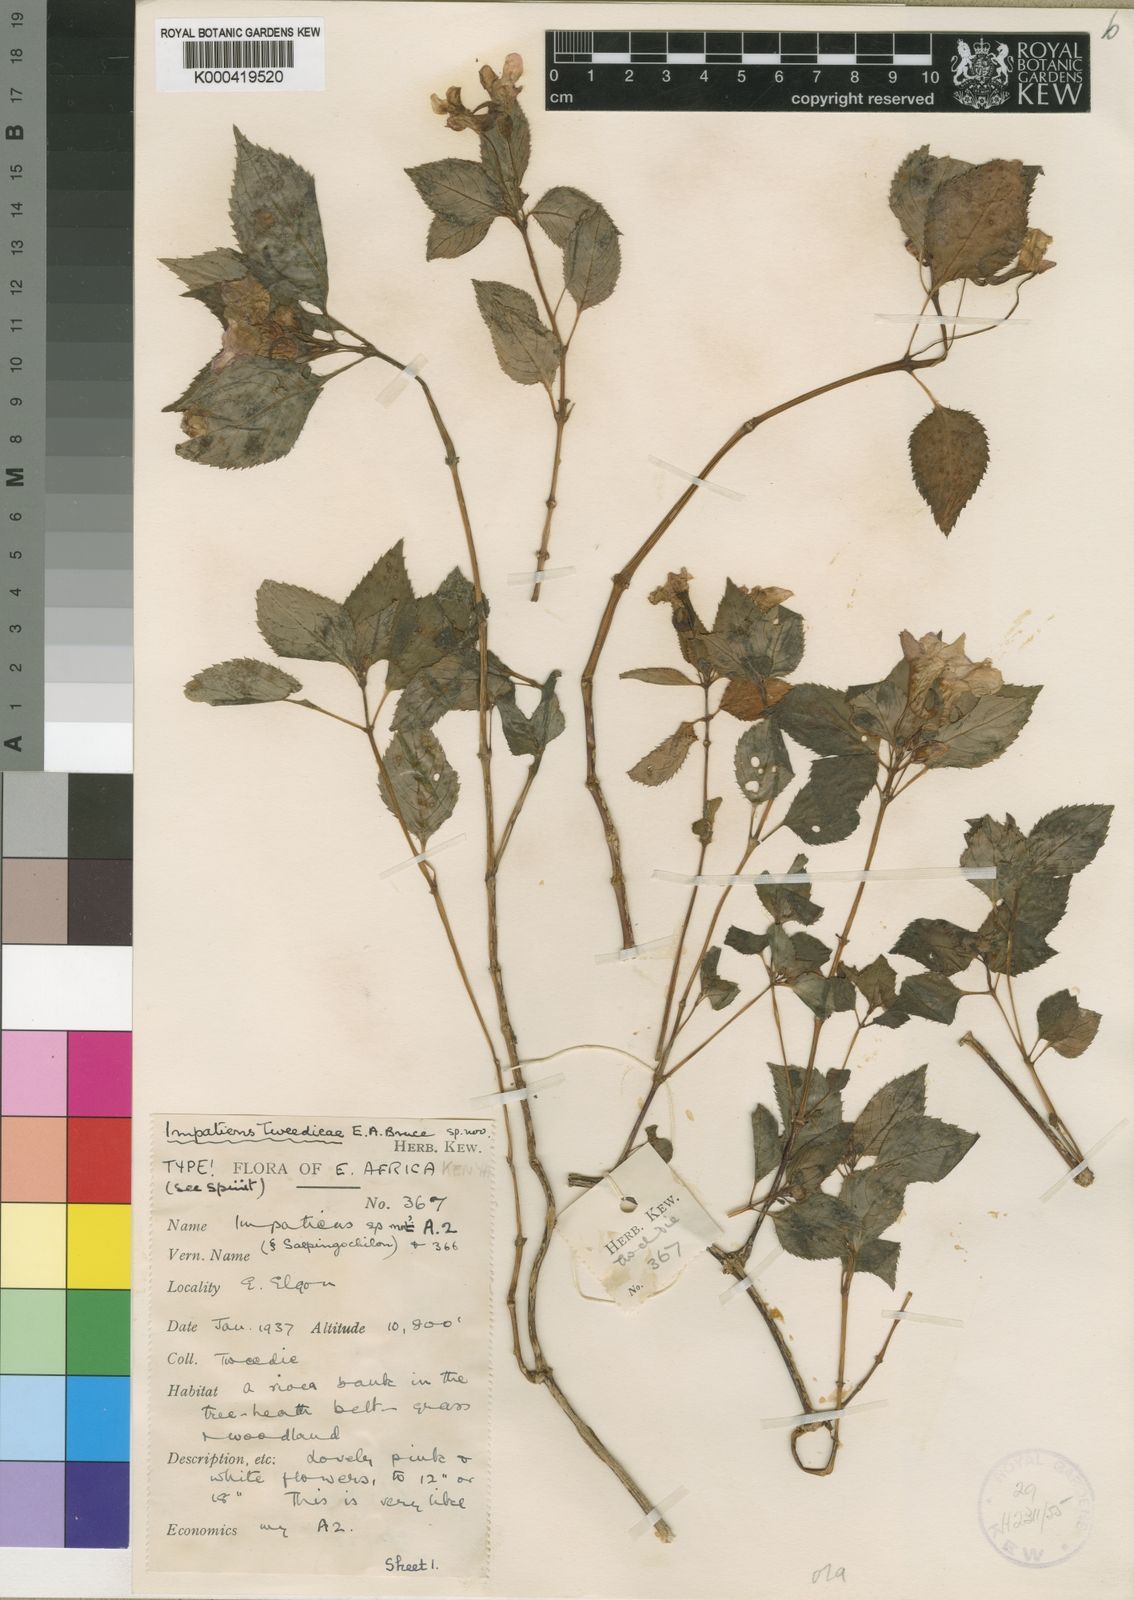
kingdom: Plantae
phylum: Tracheophyta
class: Magnoliopsida
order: Ericales
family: Balsaminaceae
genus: Impatiens
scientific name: Impatiens
